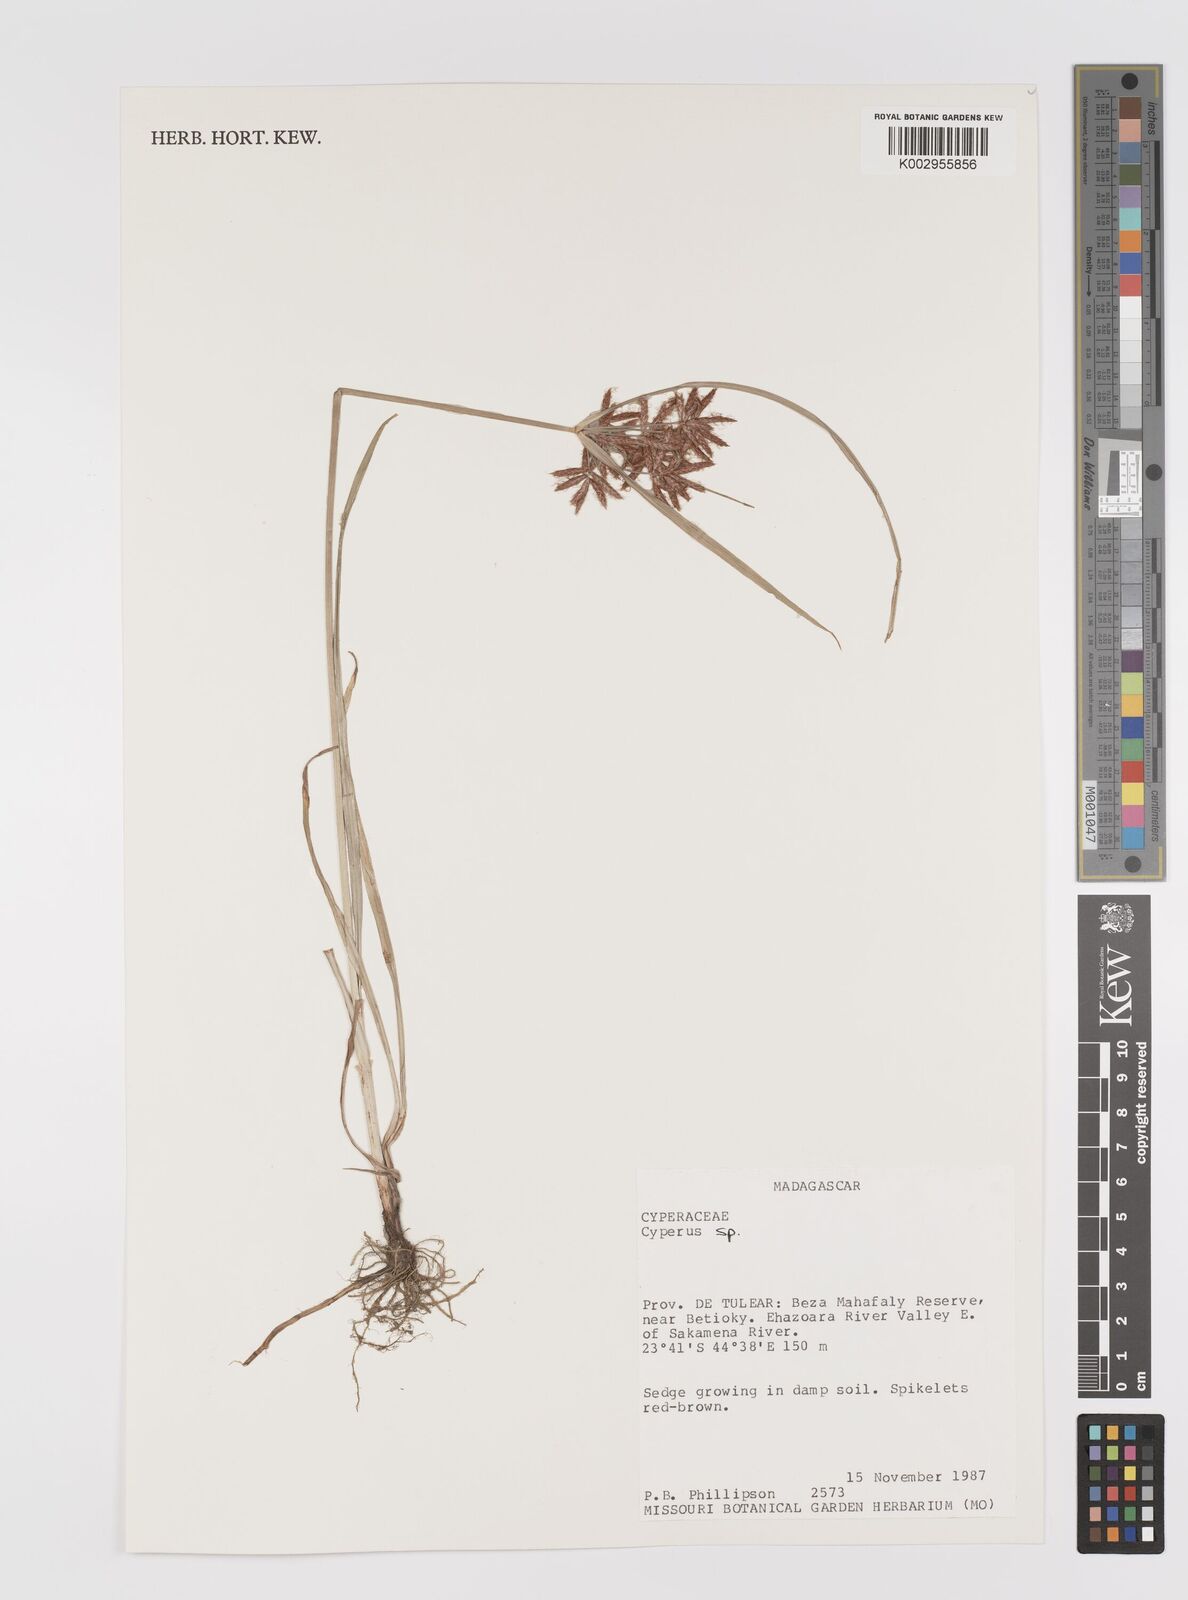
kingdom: Plantae
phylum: Tracheophyta
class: Liliopsida
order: Poales
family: Cyperaceae
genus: Cyperus
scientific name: Cyperus
